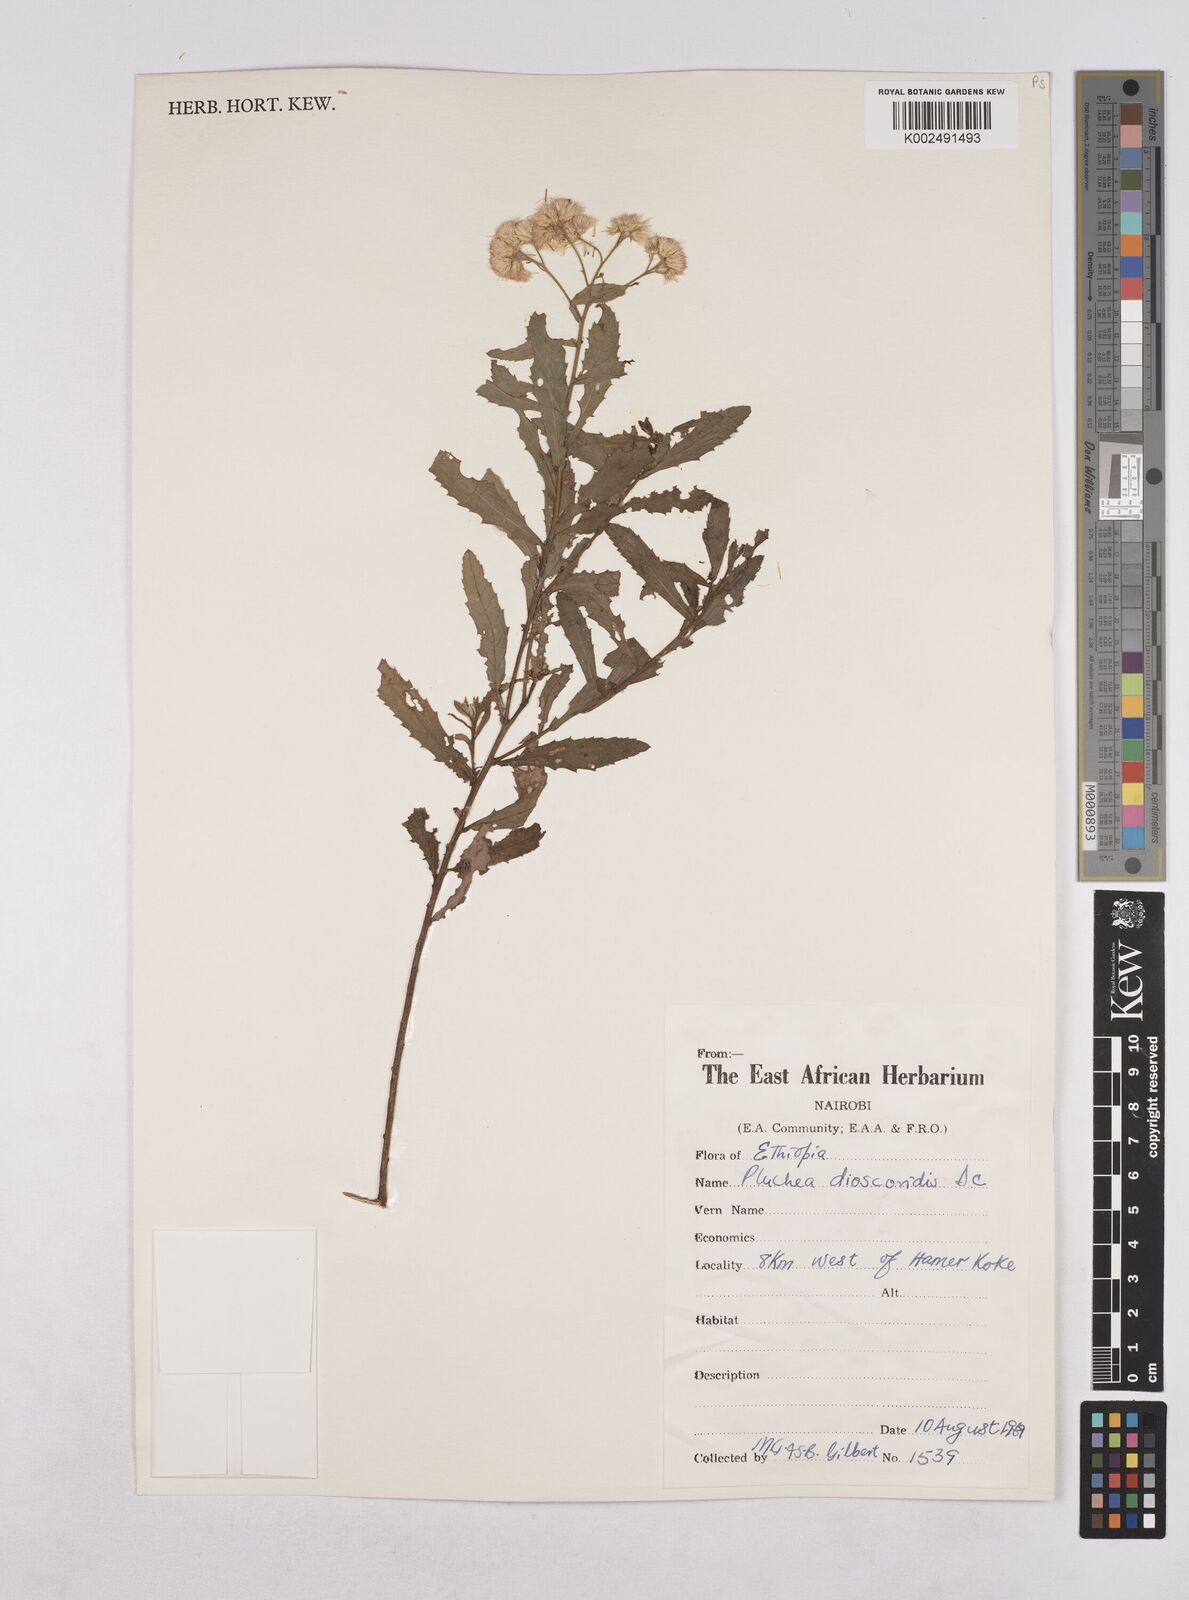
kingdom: Plantae
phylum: Tracheophyta
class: Magnoliopsida
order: Asterales
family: Asteraceae
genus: Pluchea
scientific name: Pluchea dioscoridis
